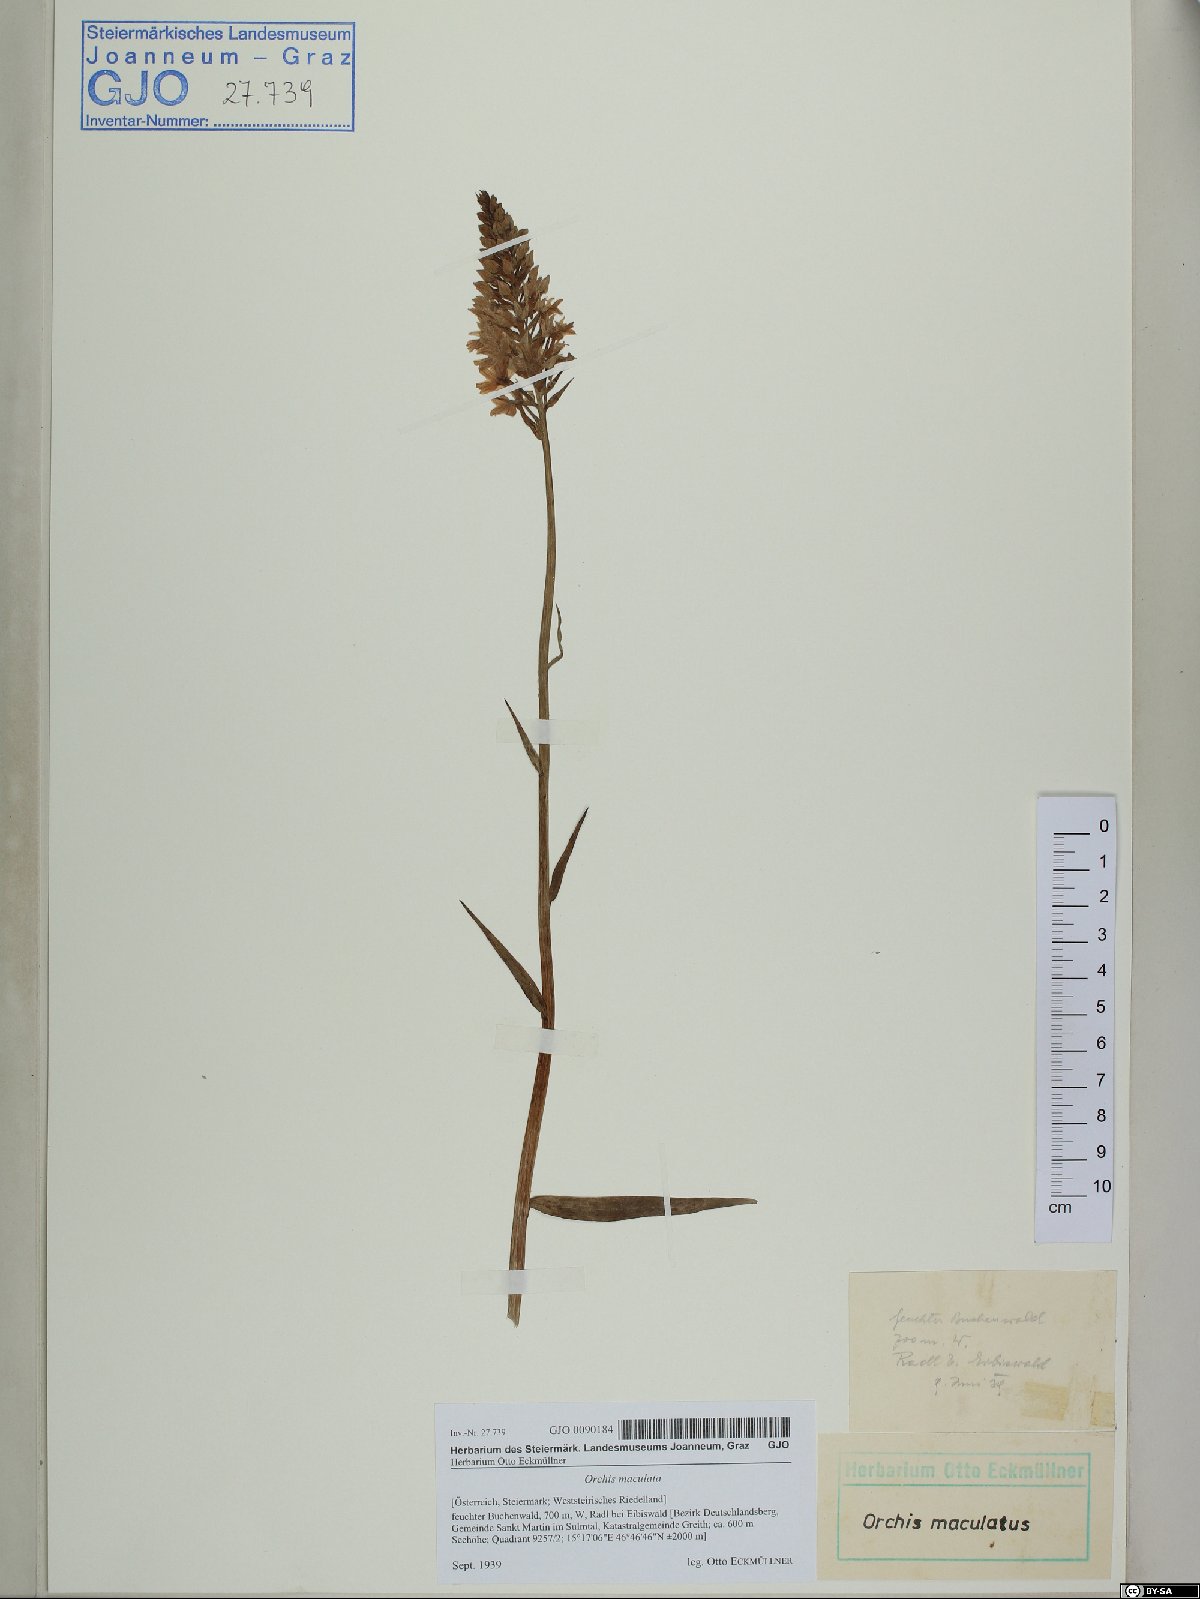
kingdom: Plantae
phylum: Tracheophyta
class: Liliopsida
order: Asparagales
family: Orchidaceae
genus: Dactylorhiza
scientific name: Dactylorhiza maculata
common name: Heath spotted-orchid
